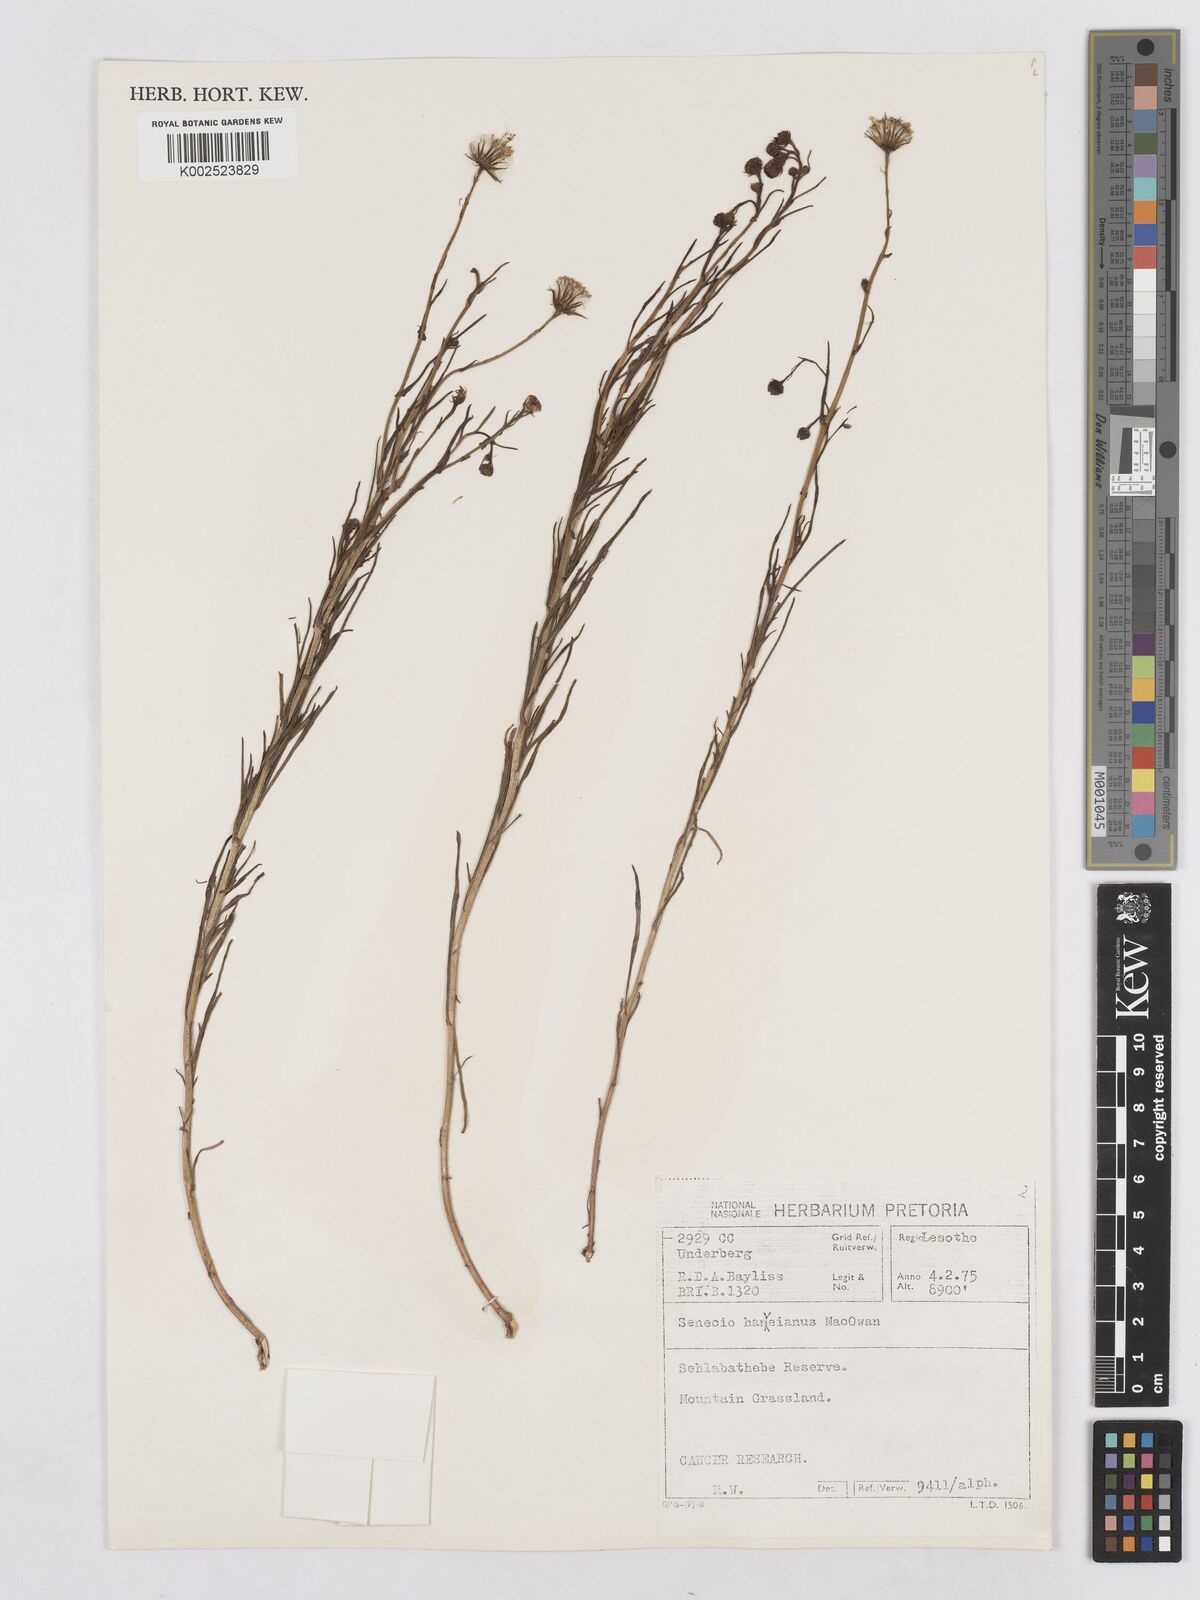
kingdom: Plantae
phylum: Tracheophyta
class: Magnoliopsida
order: Asterales
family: Asteraceae
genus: Senecio
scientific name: Senecio harveyanus
